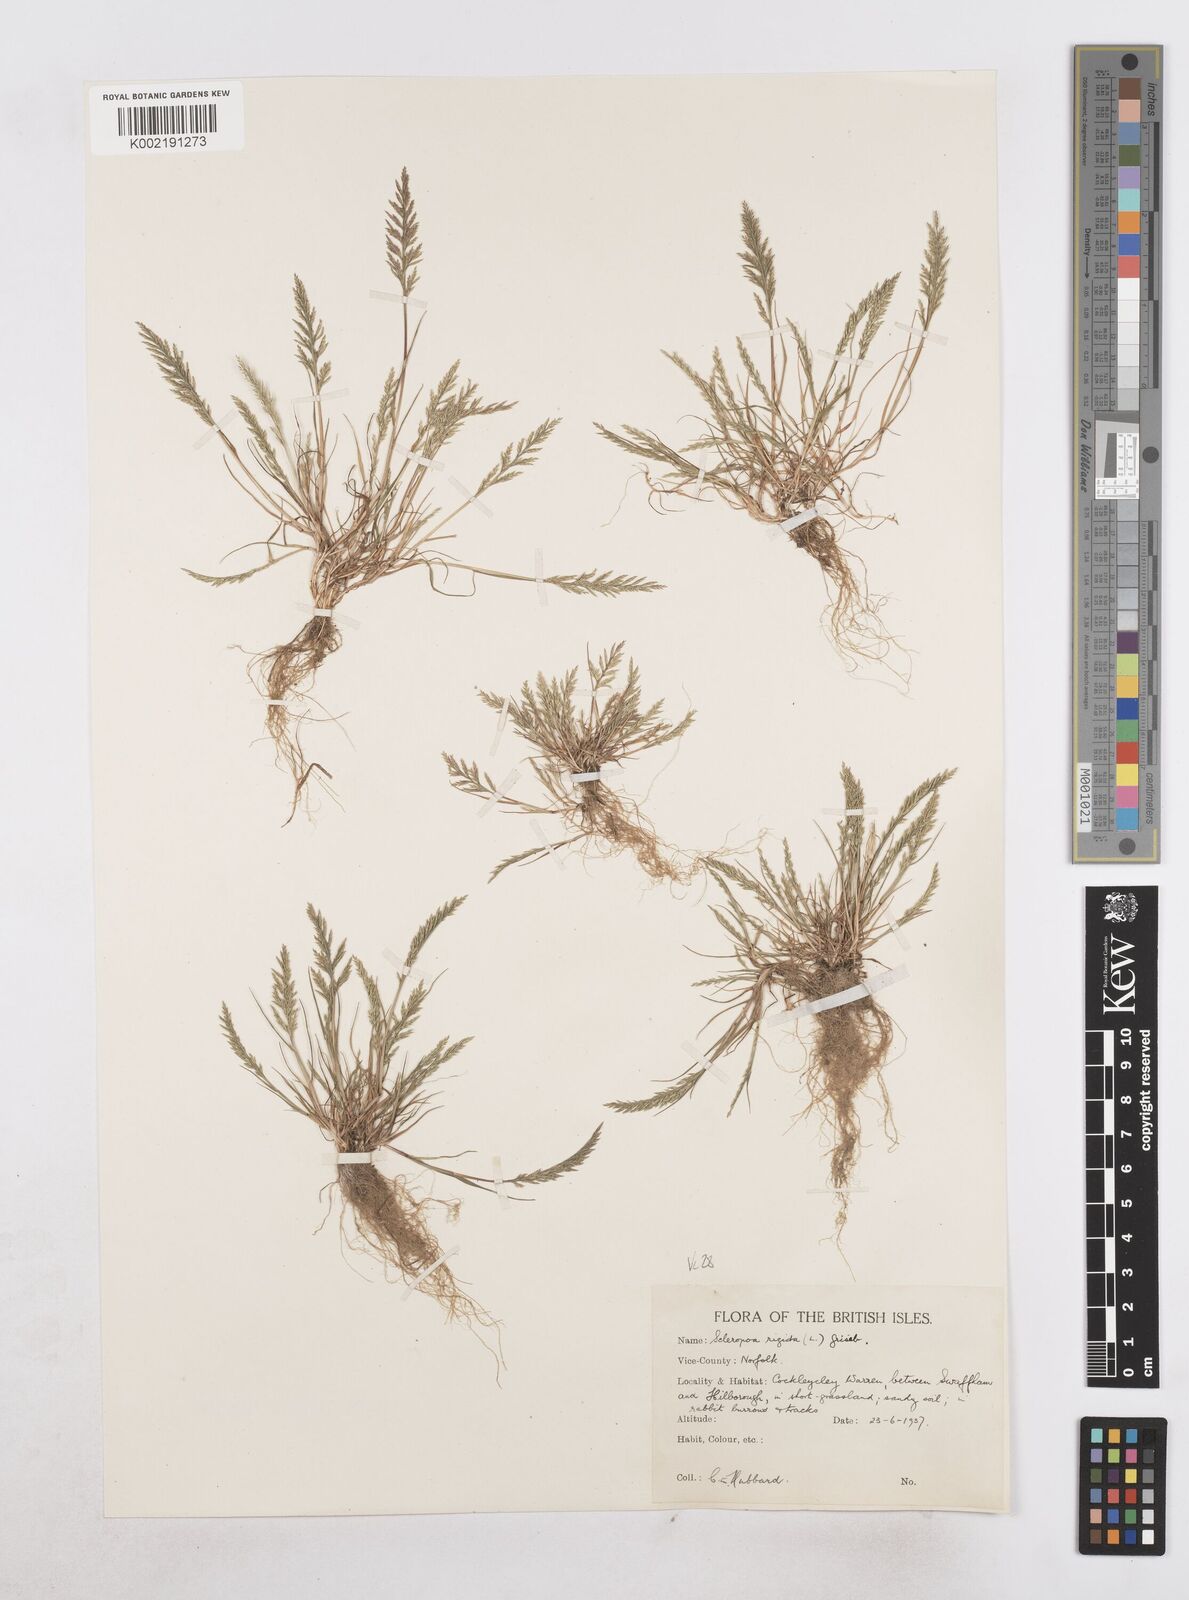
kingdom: Plantae
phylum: Tracheophyta
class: Liliopsida
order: Poales
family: Poaceae
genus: Catapodium
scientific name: Catapodium rigidum
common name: Fern-grass
